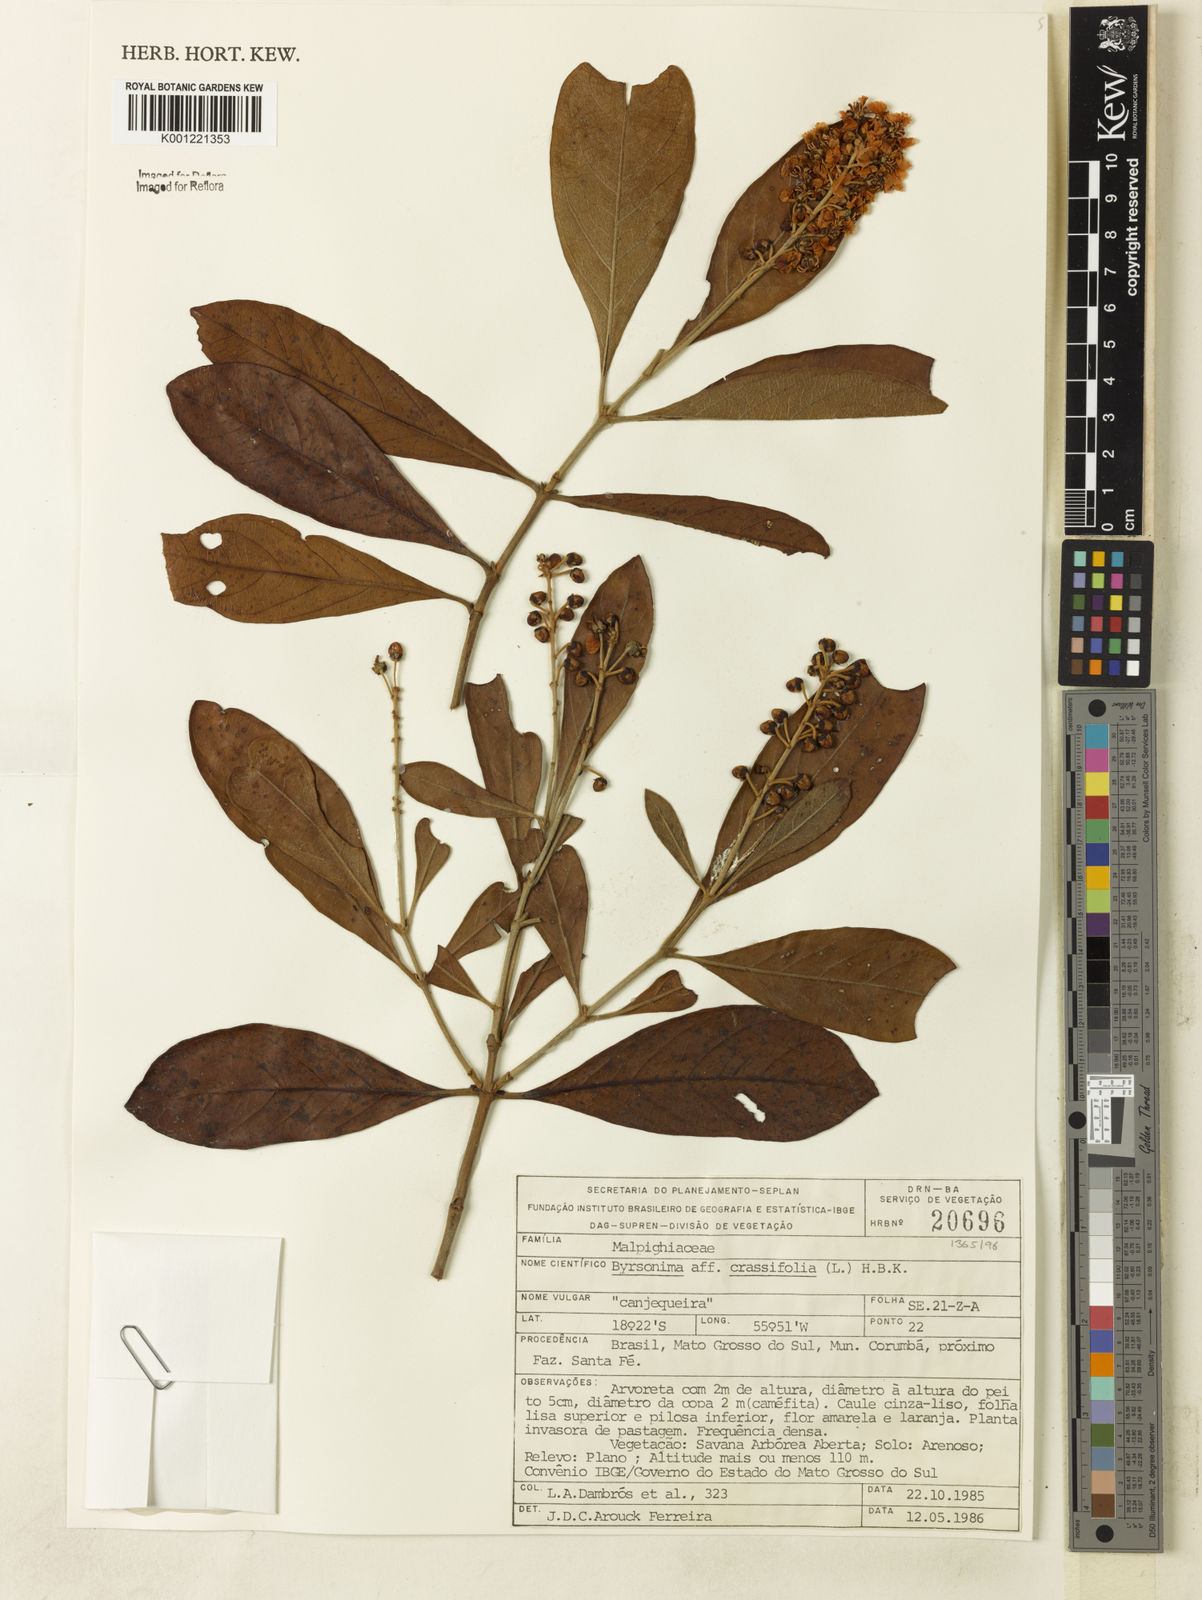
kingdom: Plantae
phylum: Tracheophyta
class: Magnoliopsida
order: Malpighiales
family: Malpighiaceae
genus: Byrsonima
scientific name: Byrsonima crassifolia
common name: Golden spoon
